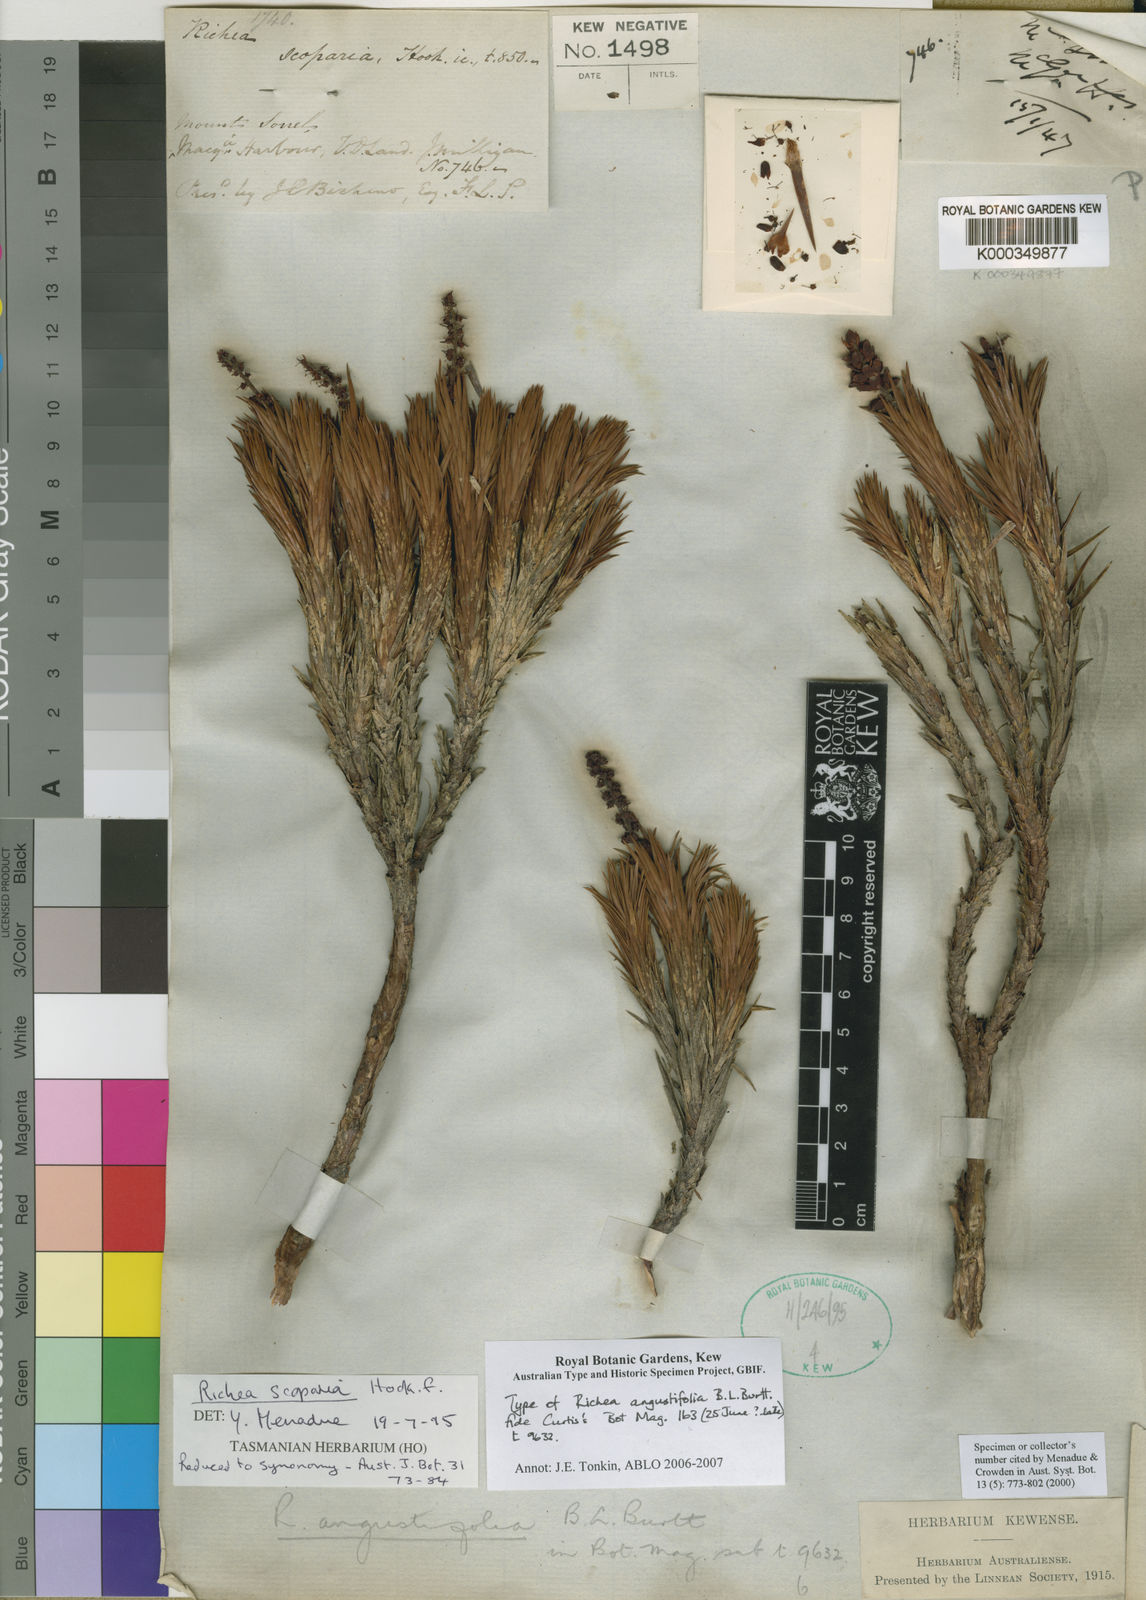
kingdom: Plantae
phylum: Tracheophyta
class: Magnoliopsida
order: Ericales
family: Ericaceae
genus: Dracophyllum
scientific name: Dracophyllum persistentifolium
